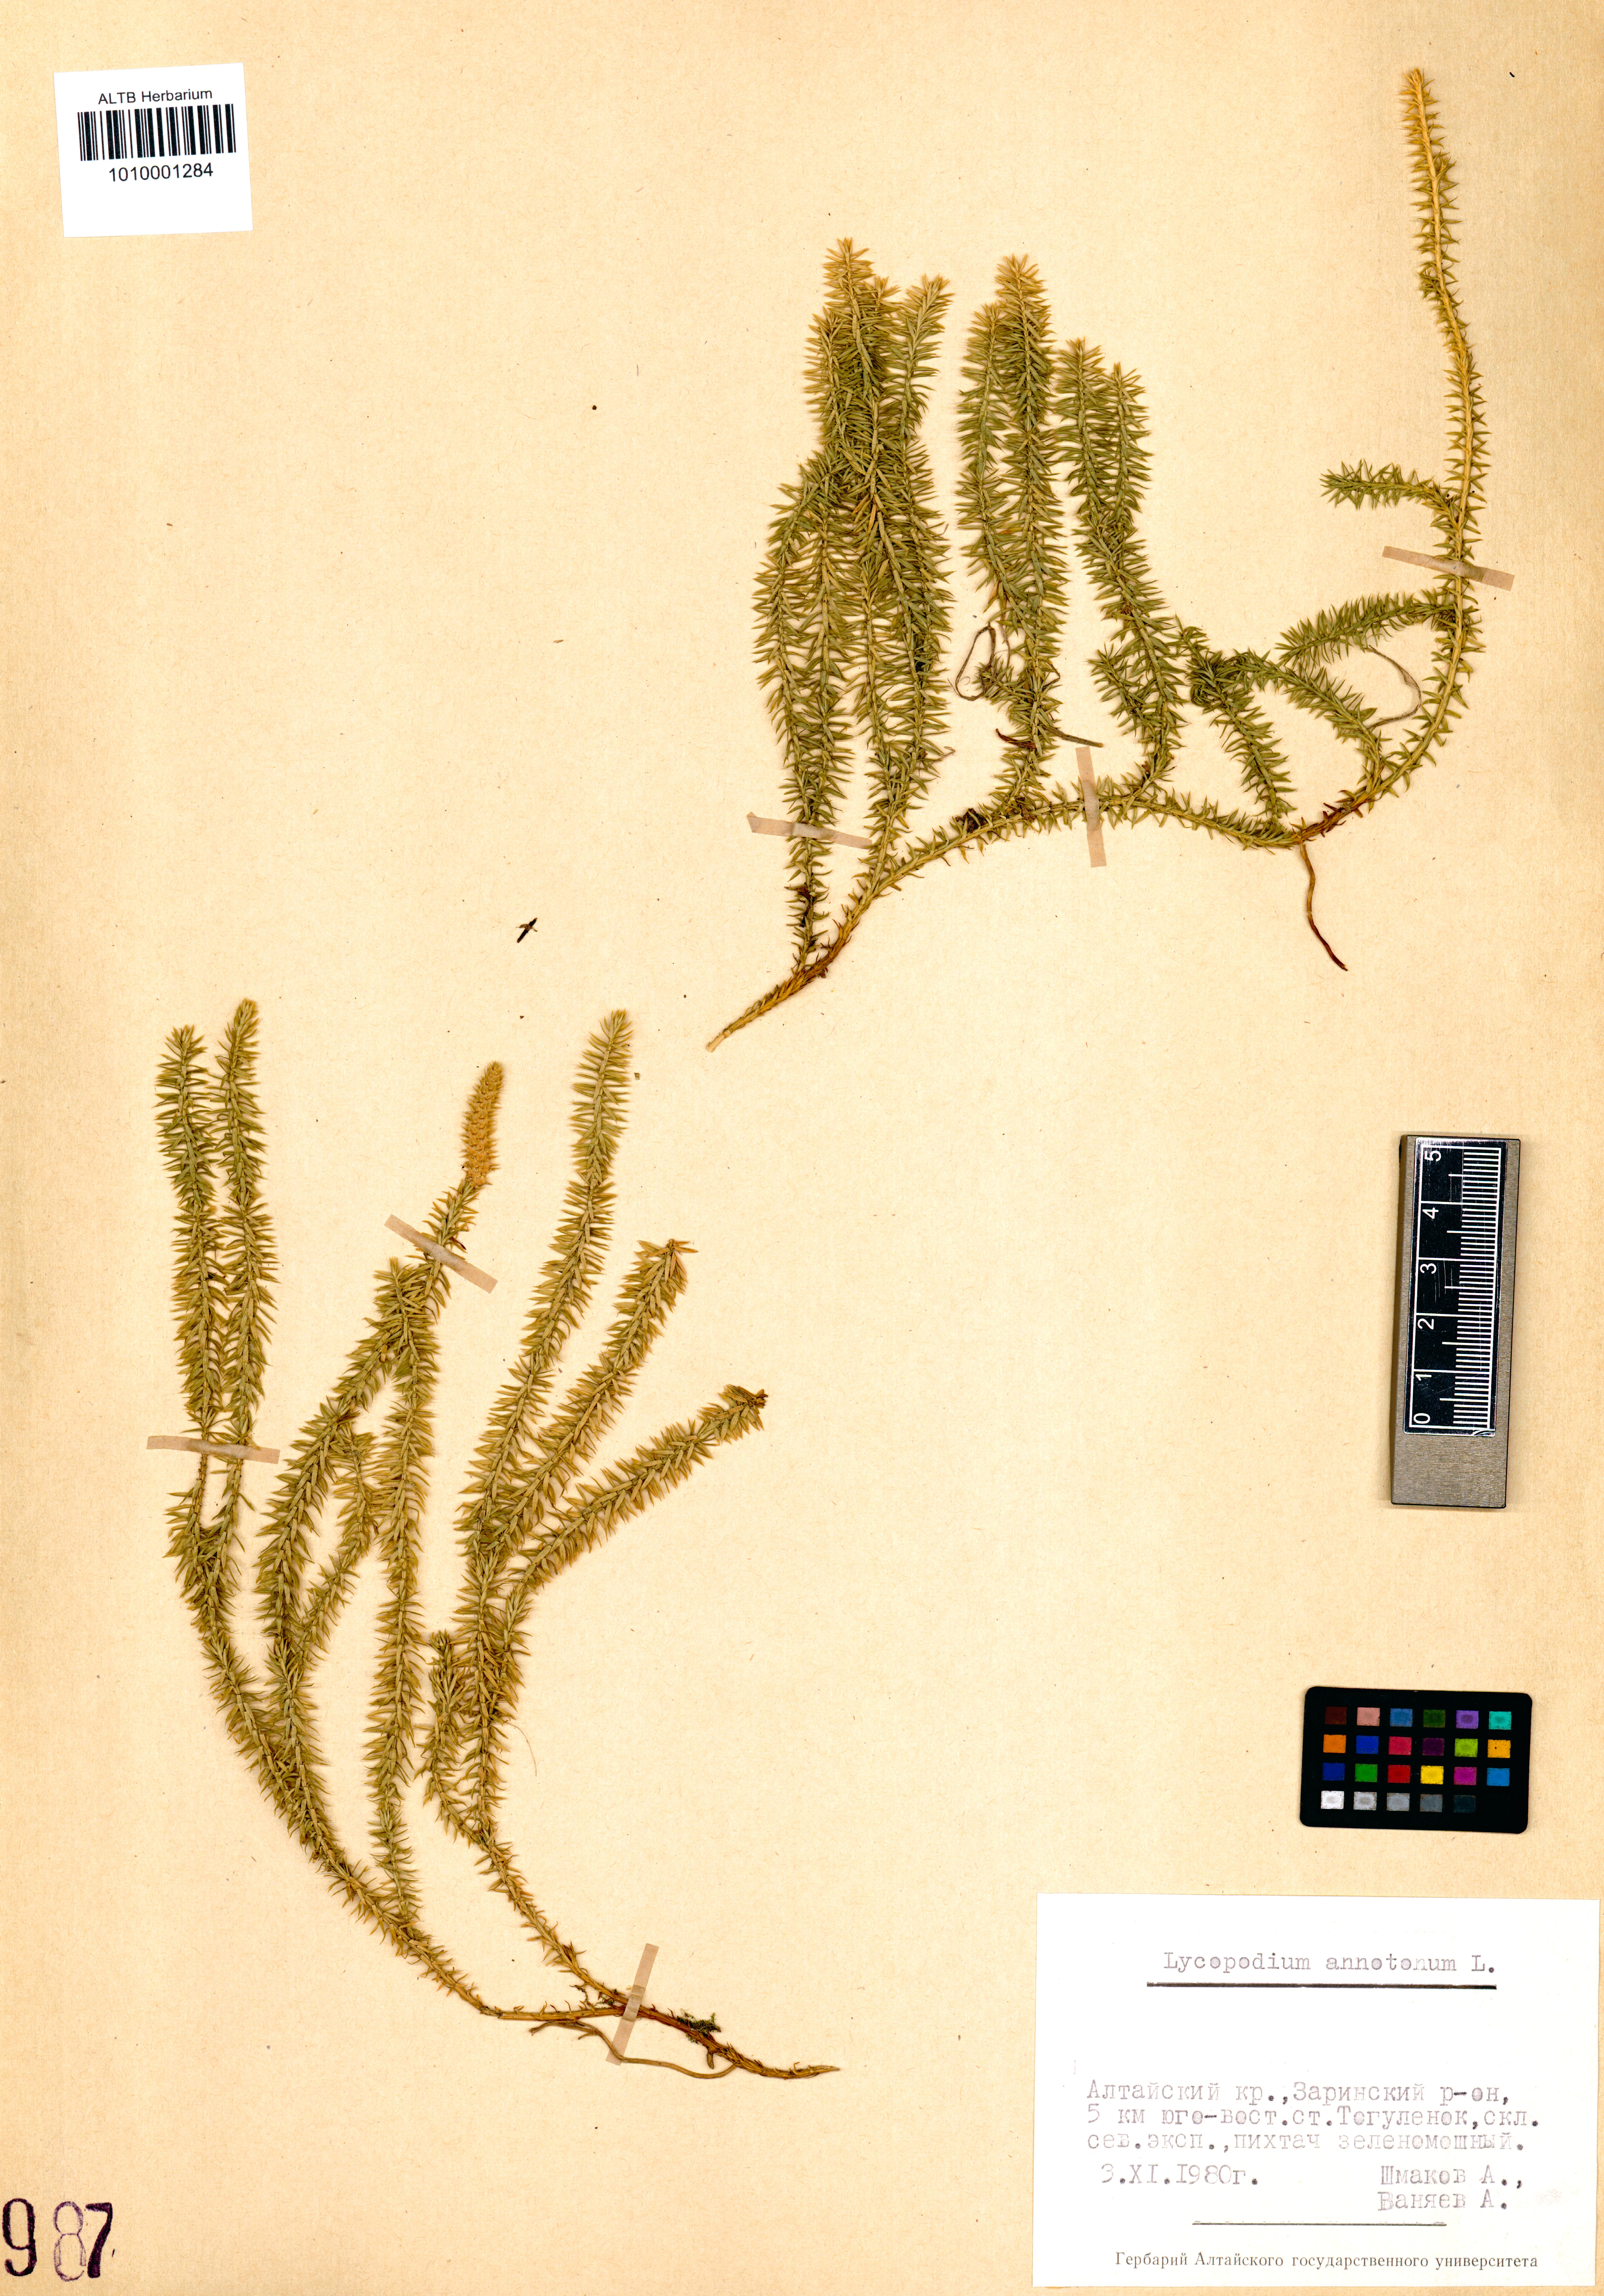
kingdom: Plantae
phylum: Tracheophyta
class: Lycopodiopsida
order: Lycopodiales
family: Lycopodiaceae
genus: Spinulum
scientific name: Spinulum annotinum
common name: Interrupted club-moss
